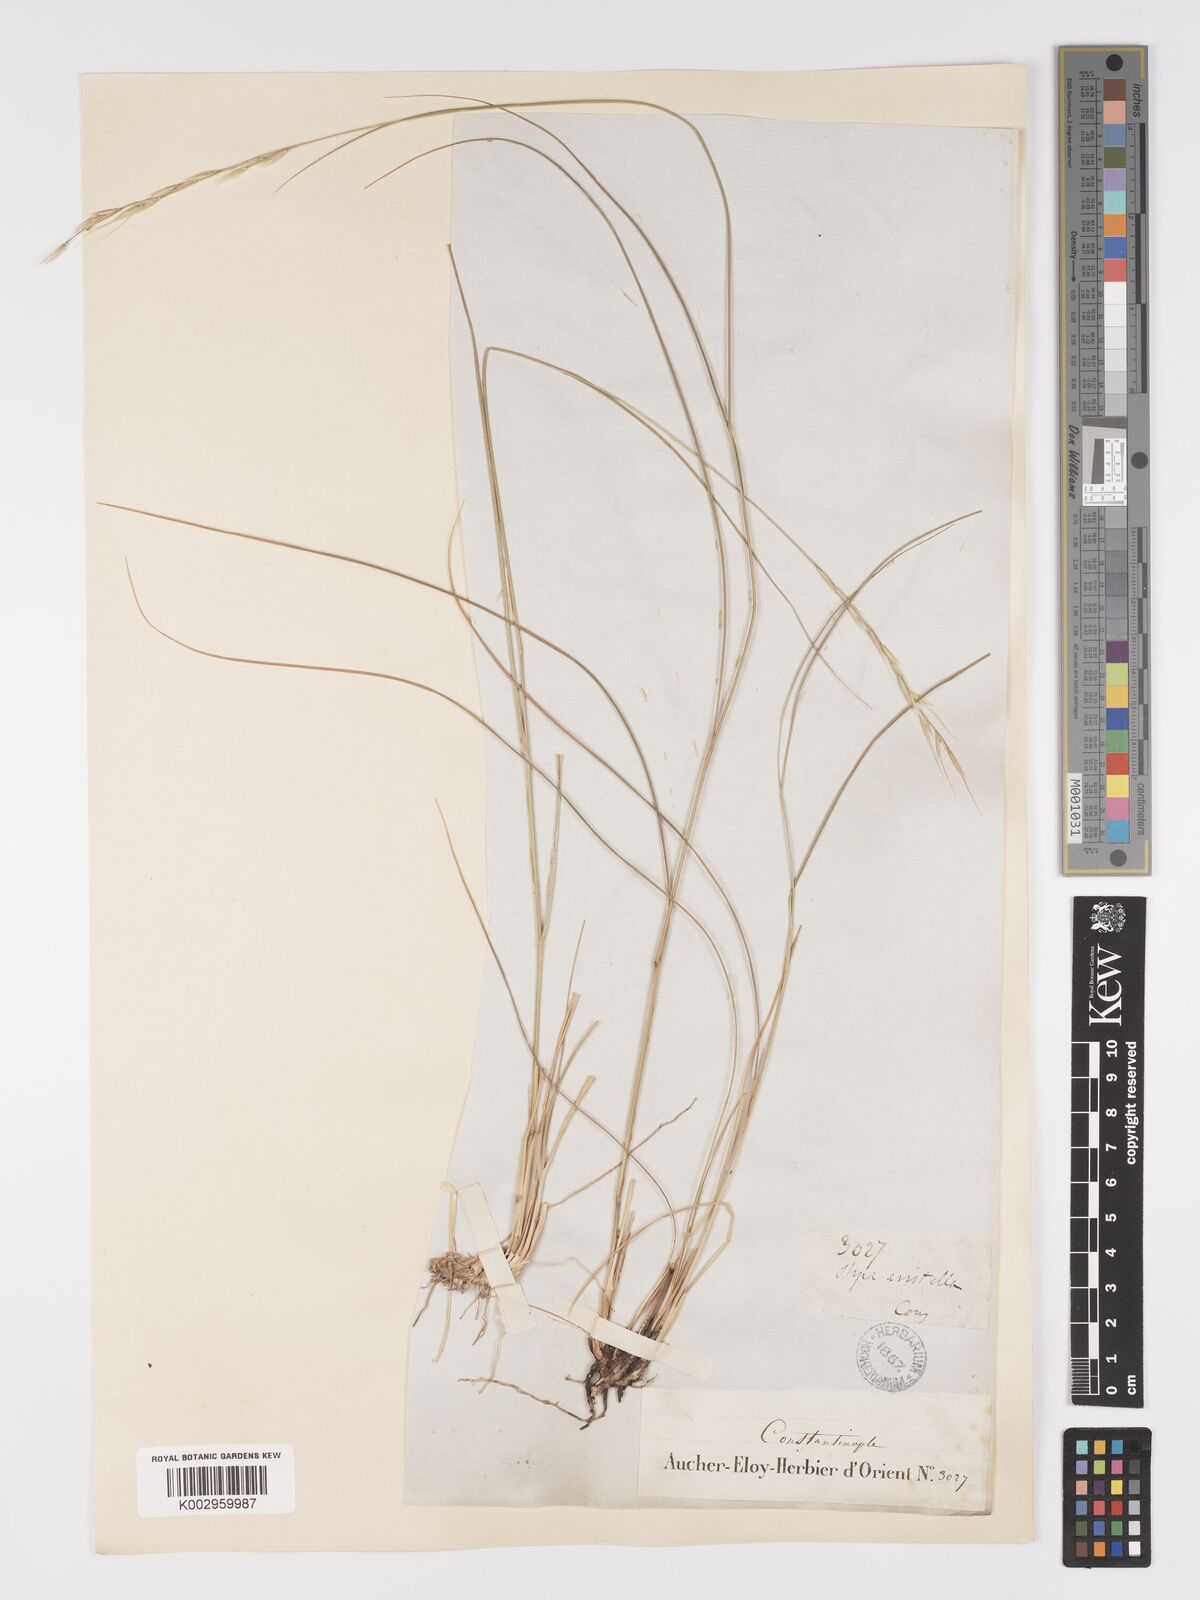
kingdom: Plantae
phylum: Tracheophyta
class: Liliopsida
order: Poales
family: Poaceae
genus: Achnatherum
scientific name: Achnatherum bromoides
